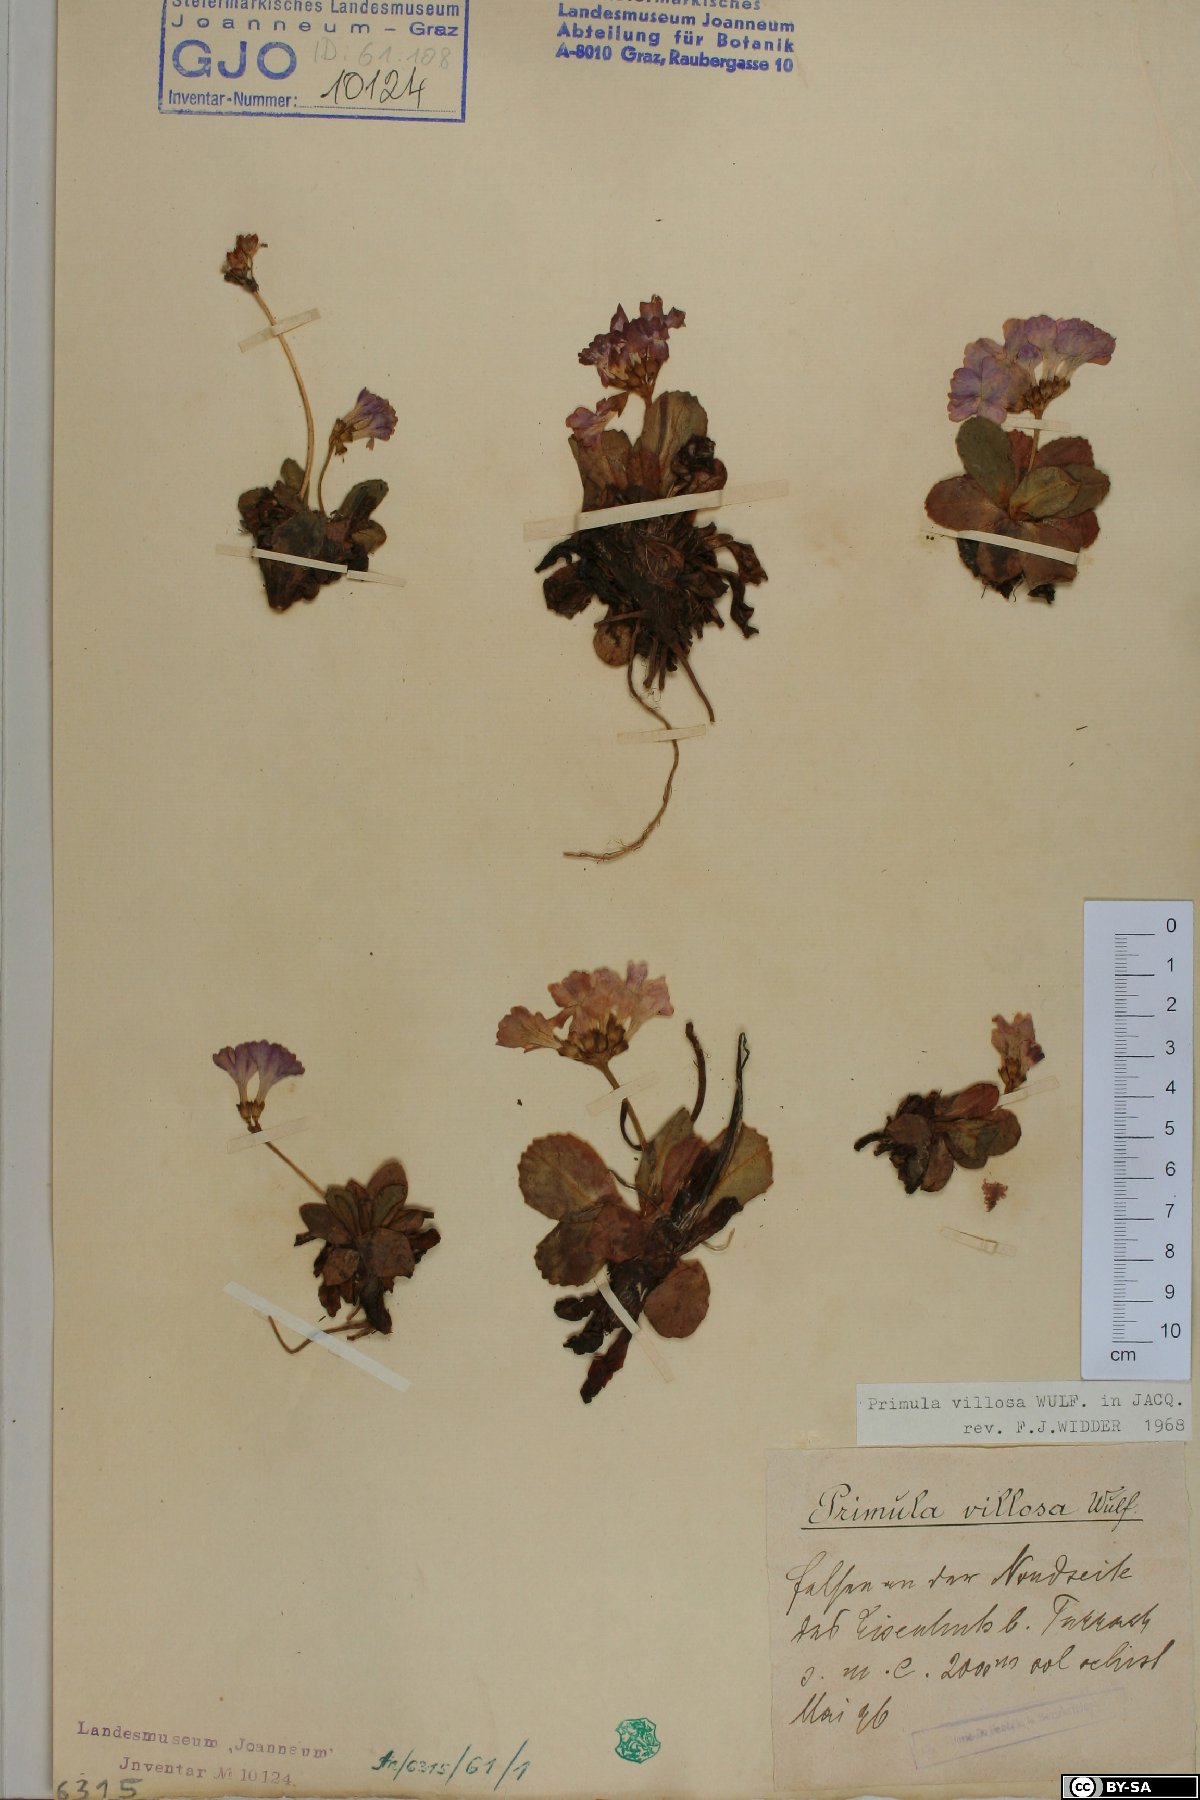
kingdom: Plantae
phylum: Tracheophyta
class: Magnoliopsida
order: Ericales
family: Primulaceae
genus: Primula
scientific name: Primula villosa
